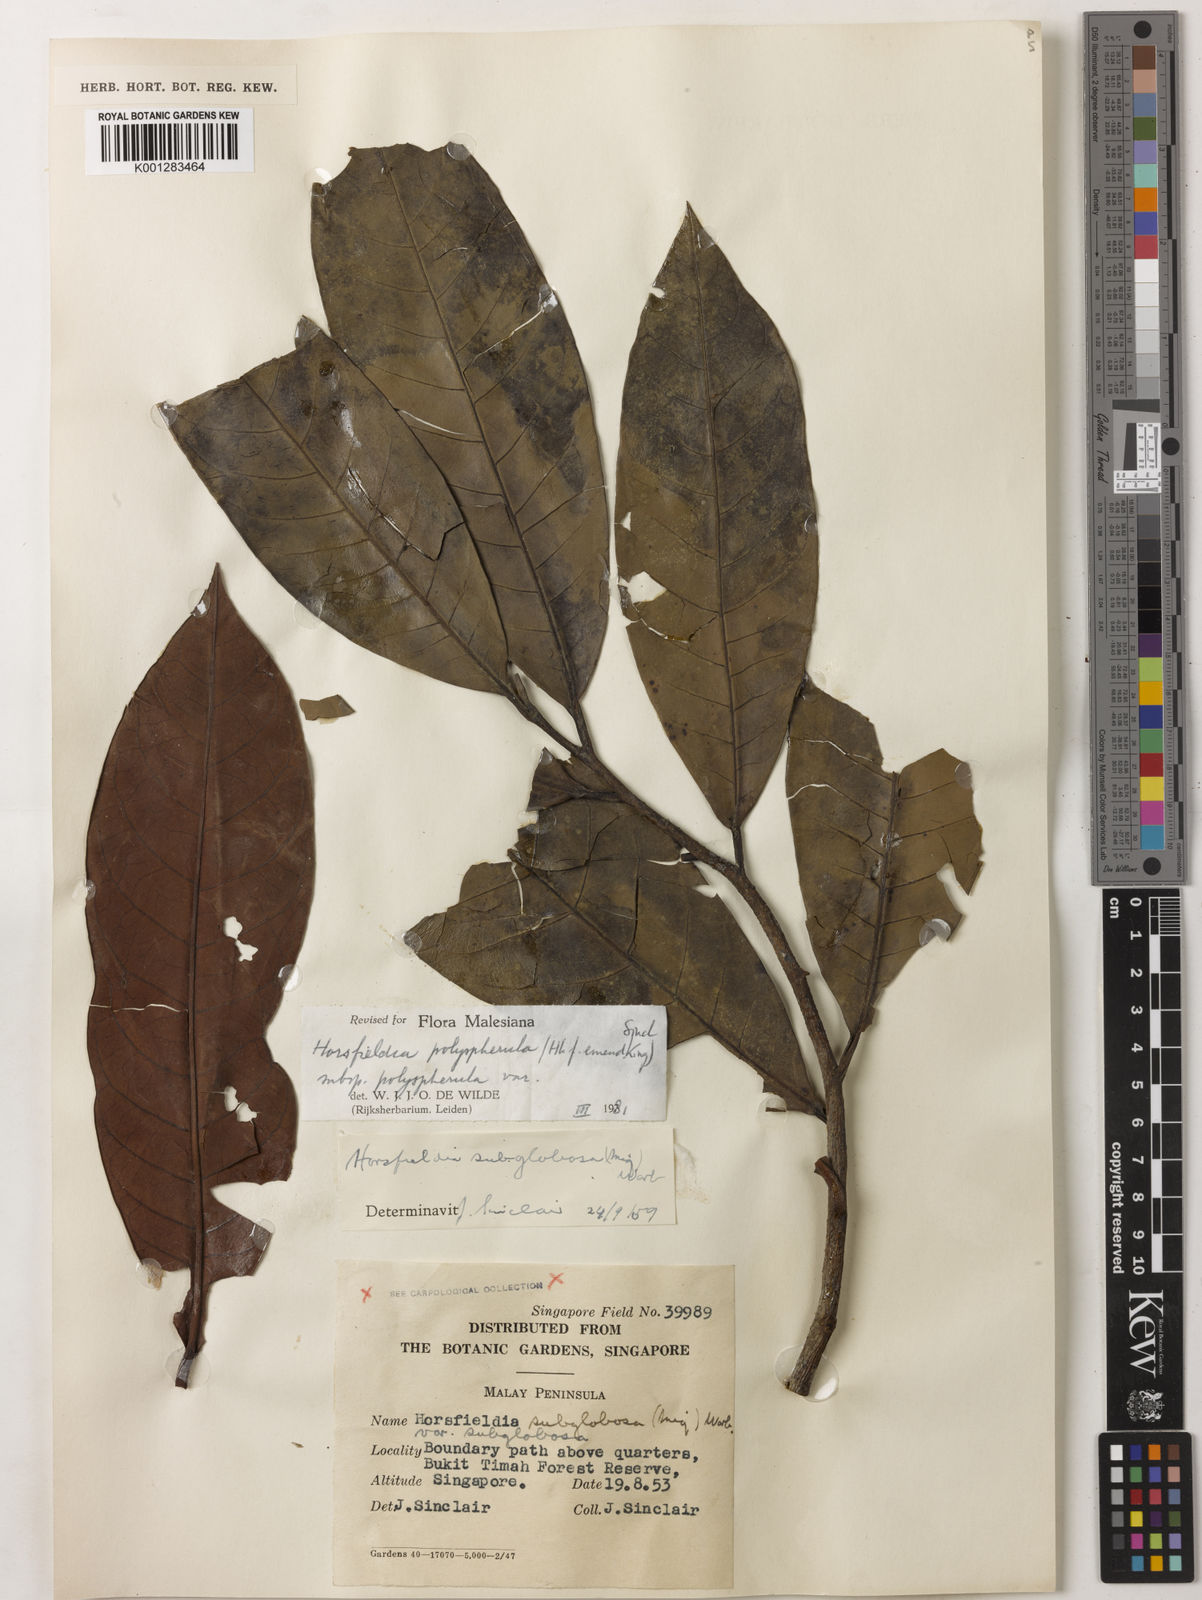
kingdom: Plantae
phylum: Tracheophyta
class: Magnoliopsida
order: Magnoliales
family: Myristicaceae
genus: Horsfieldia
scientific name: Horsfieldia polyspherula
